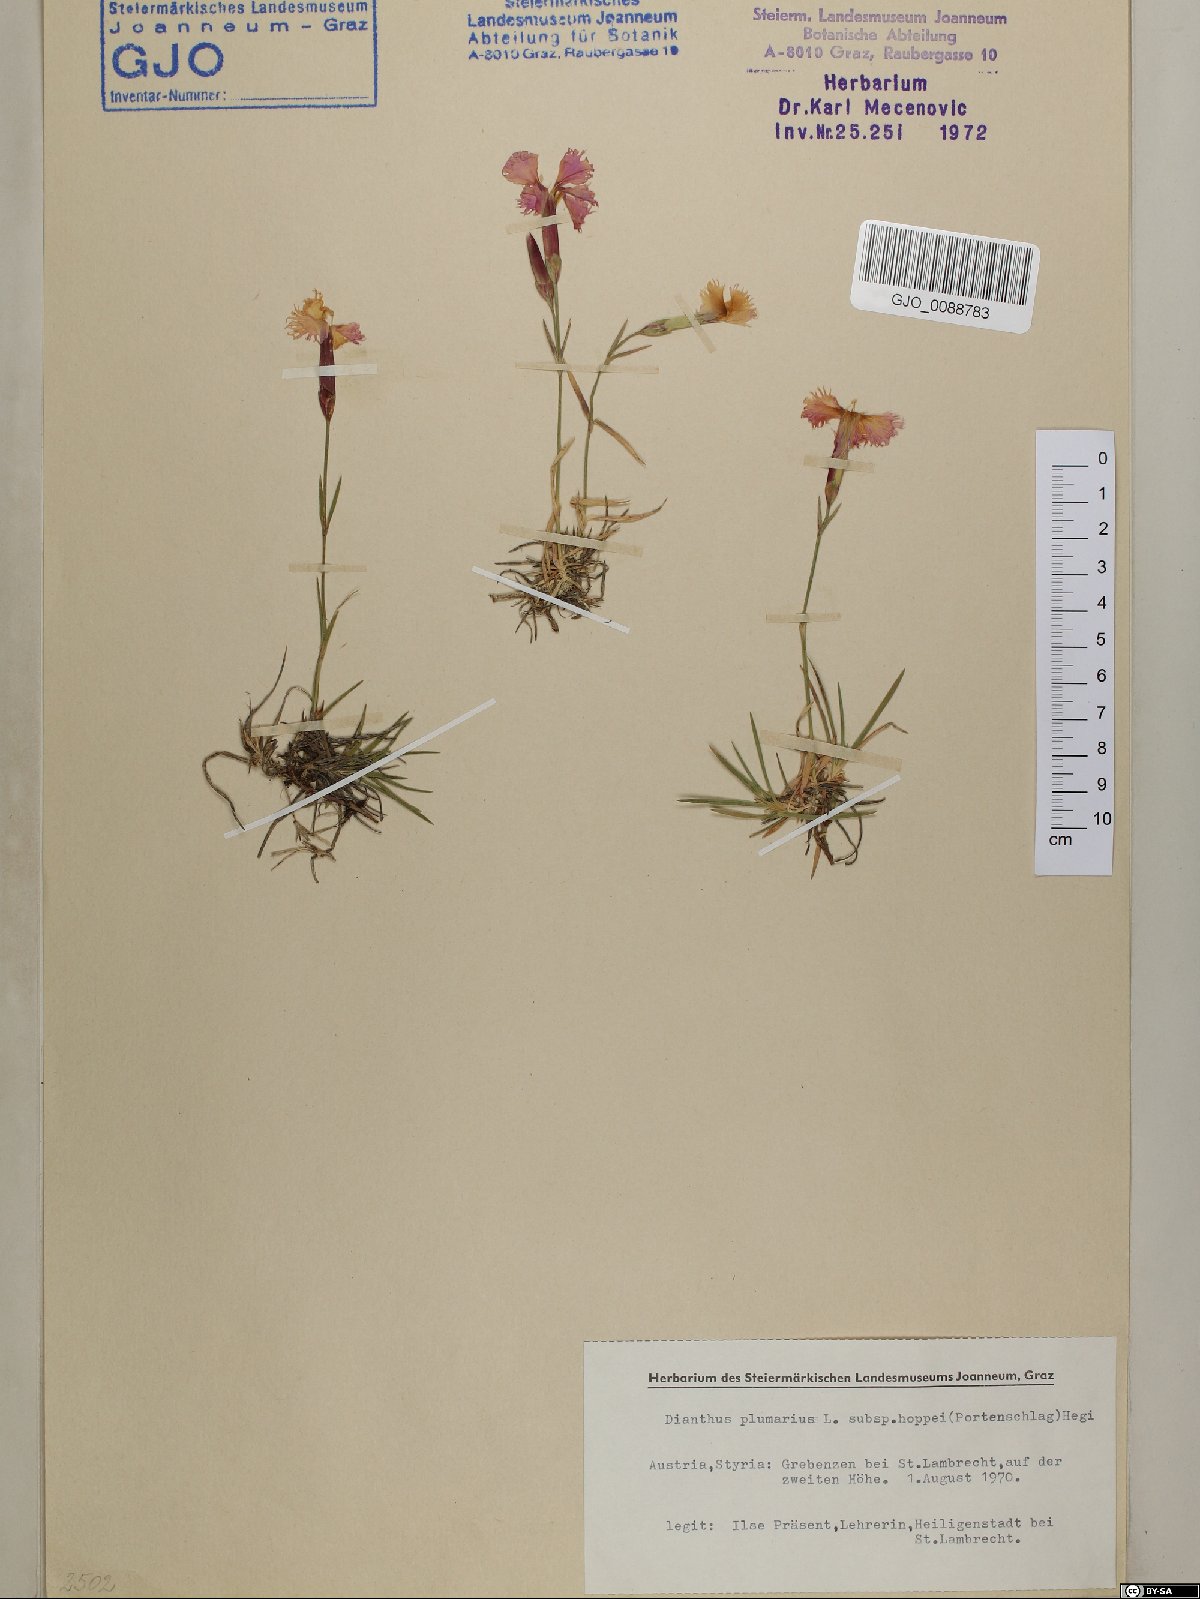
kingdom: Plantae
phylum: Tracheophyta
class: Magnoliopsida
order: Caryophyllales
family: Caryophyllaceae
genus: Dianthus
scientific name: Dianthus plumarius
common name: Pink
